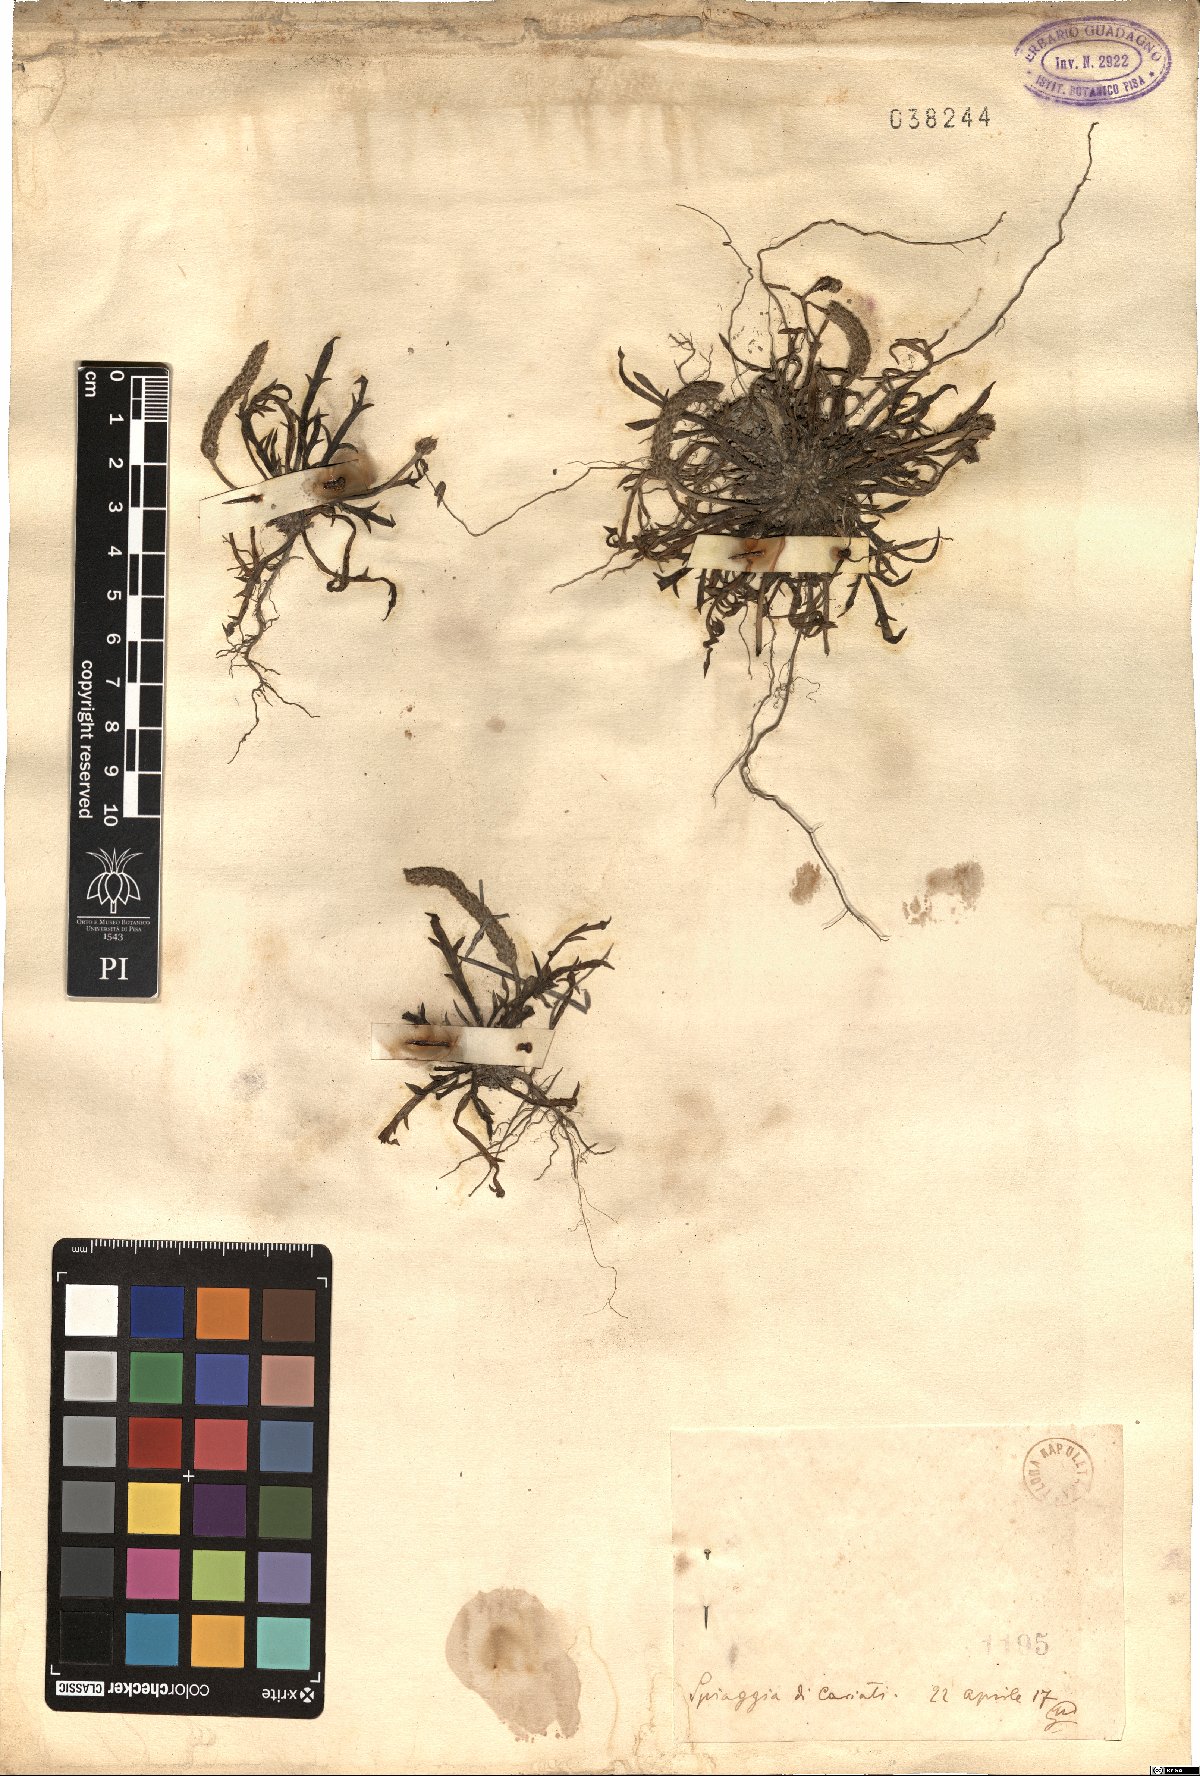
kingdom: Plantae
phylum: Tracheophyta
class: Magnoliopsida
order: Lamiales
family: Plantaginaceae
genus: Plantago
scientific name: Plantago
